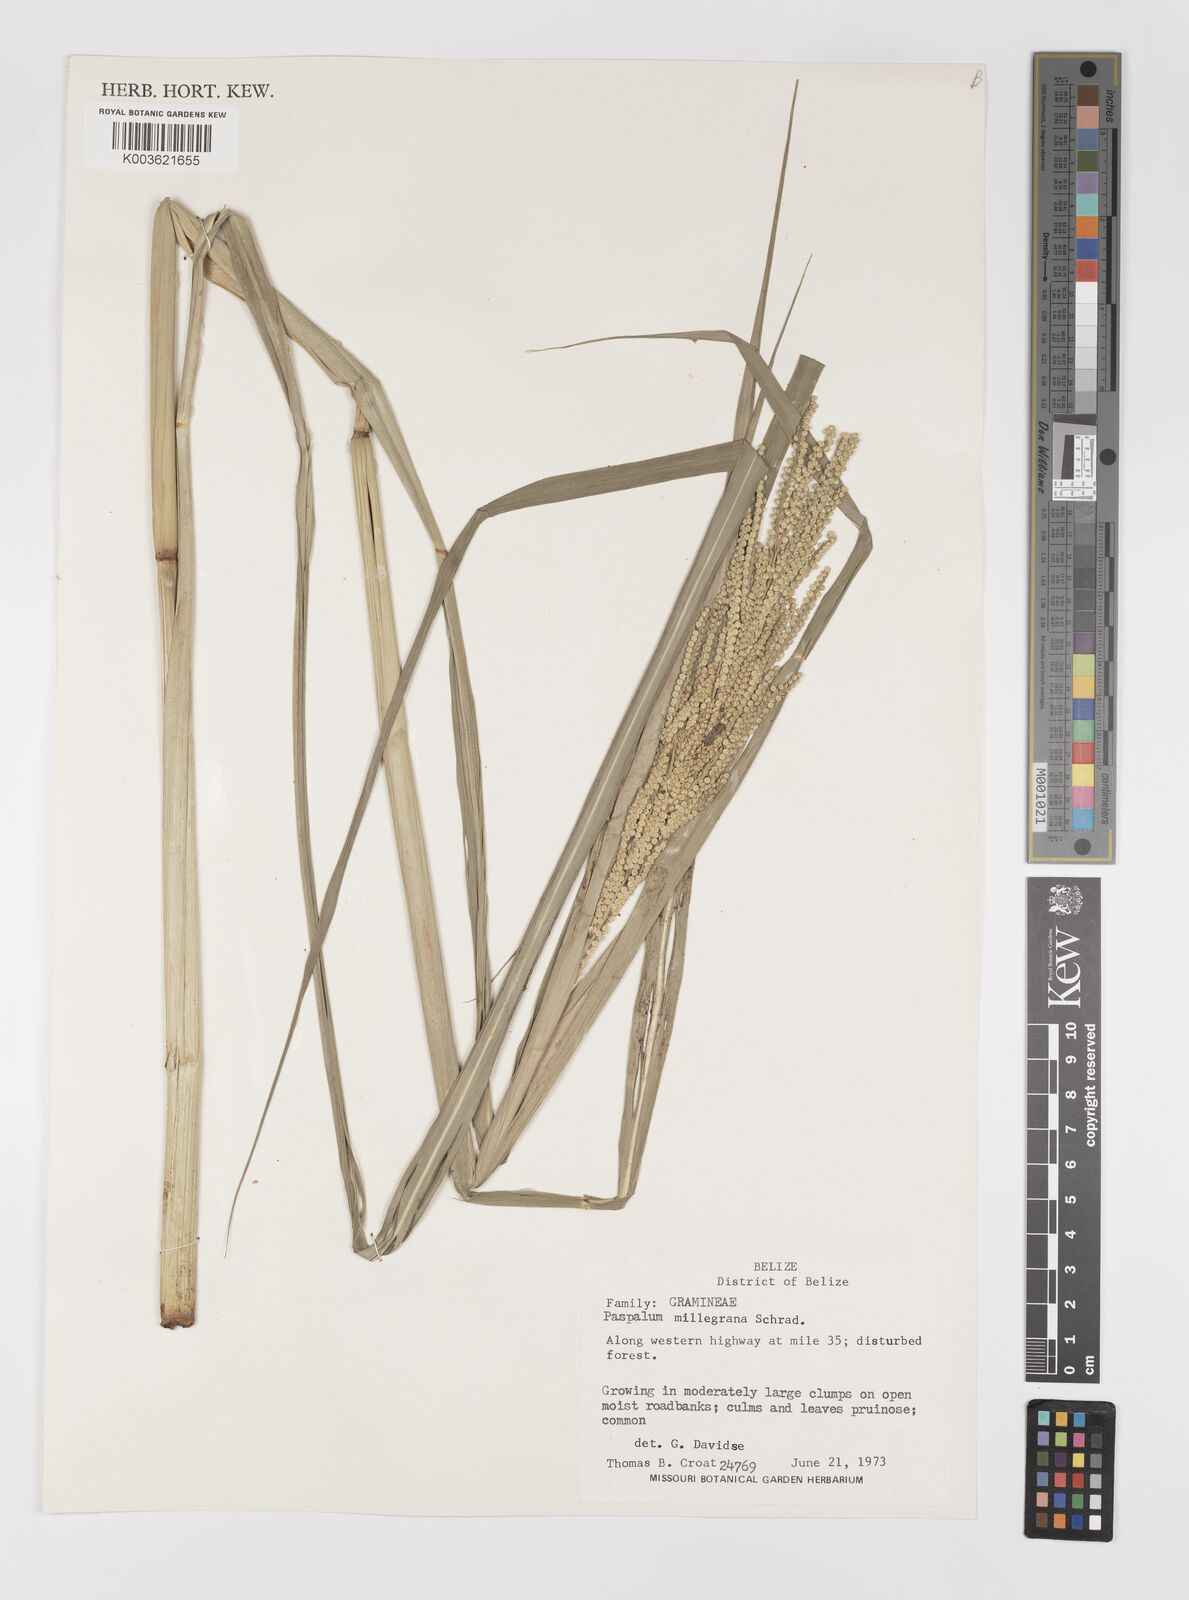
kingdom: Plantae
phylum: Tracheophyta
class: Liliopsida
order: Poales
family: Poaceae
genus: Paspalum
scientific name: Paspalum millegranum
